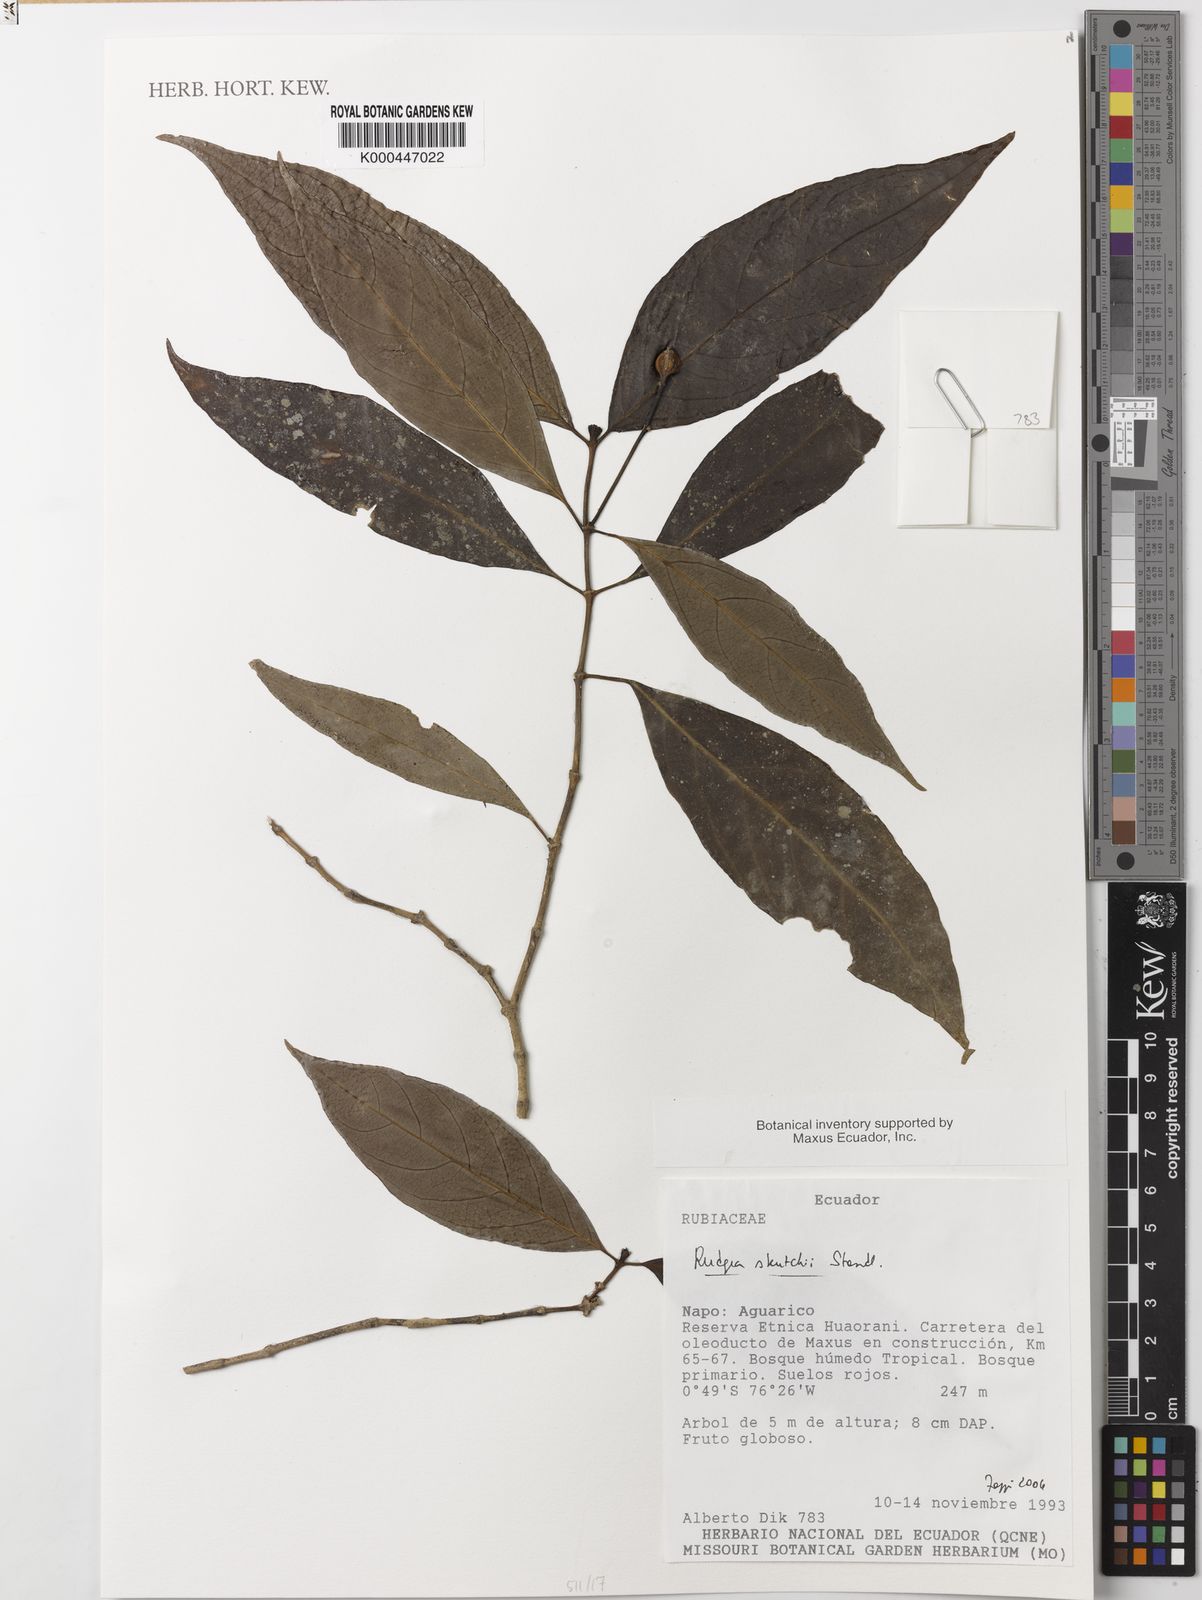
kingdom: Plantae
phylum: Tracheophyta
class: Magnoliopsida
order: Gentianales
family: Rubiaceae
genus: Rudgea
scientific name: Rudgea skutchii
